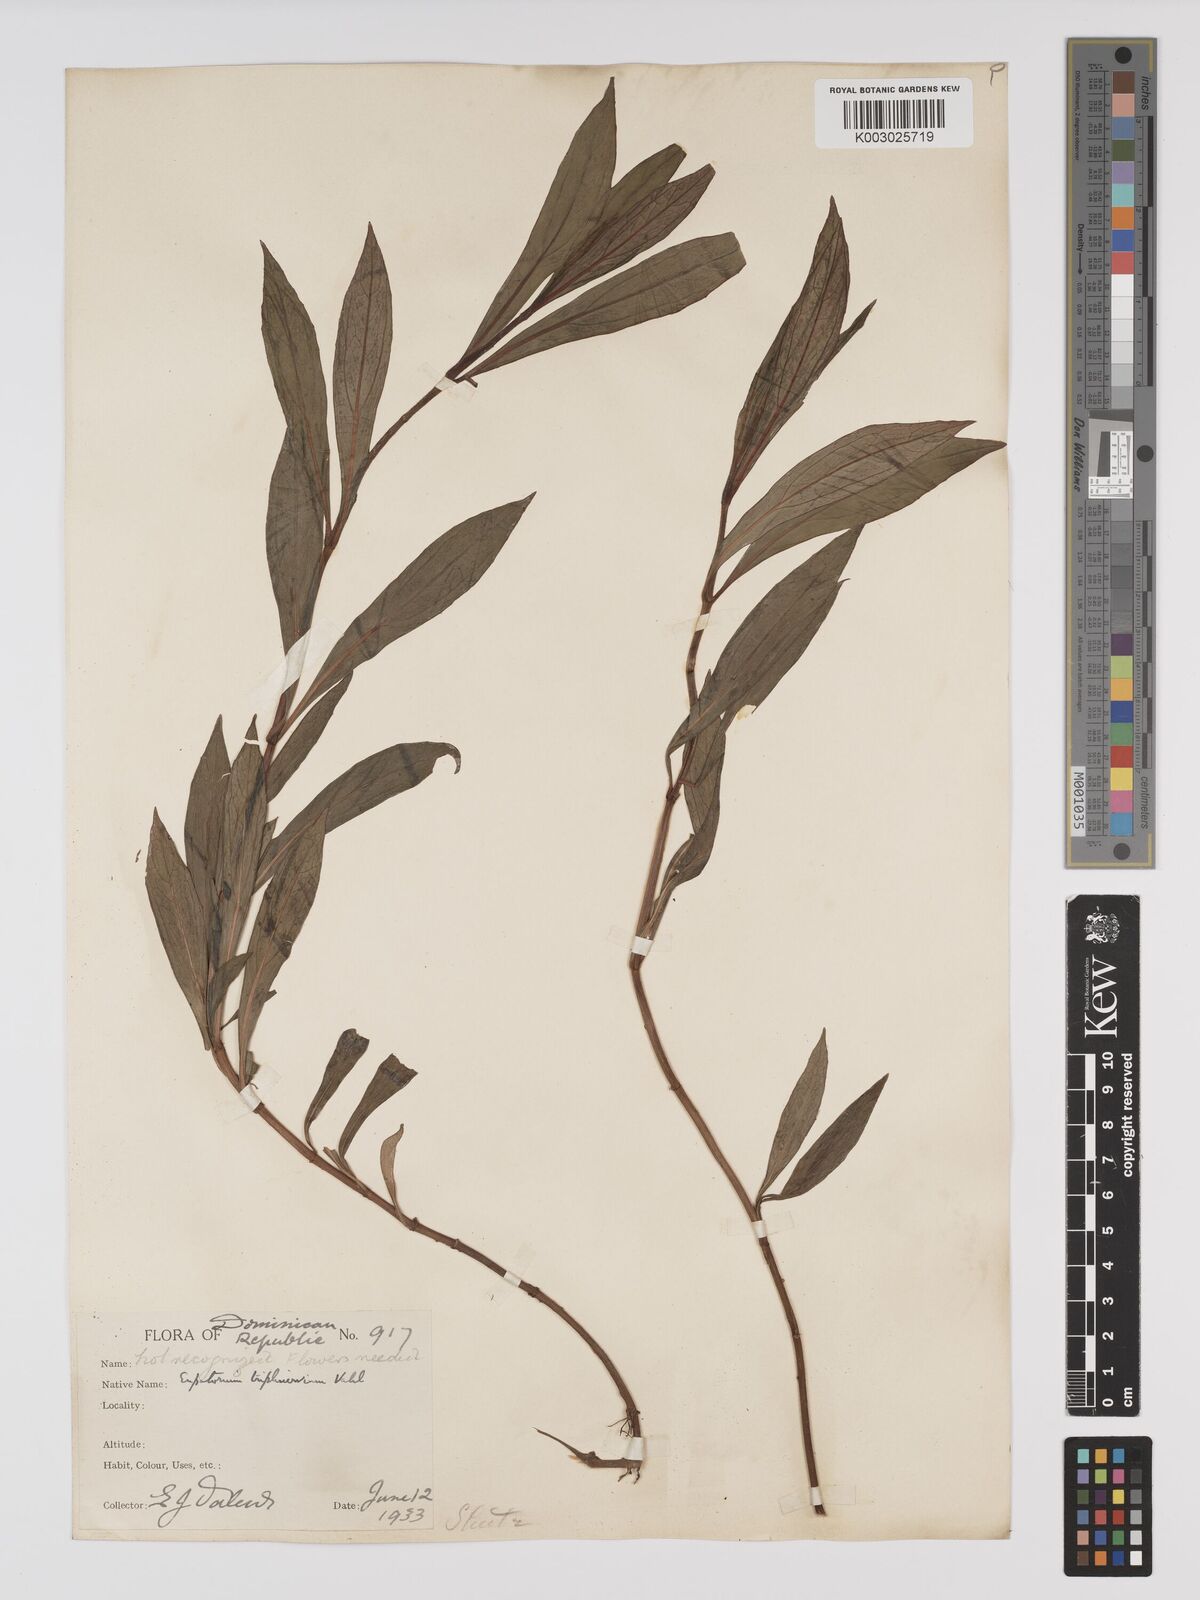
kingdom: Plantae
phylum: Tracheophyta
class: Magnoliopsida
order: Asterales
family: Asteraceae
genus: Ayapana
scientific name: Ayapana triplinervis
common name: Triplinerved eupatorium
